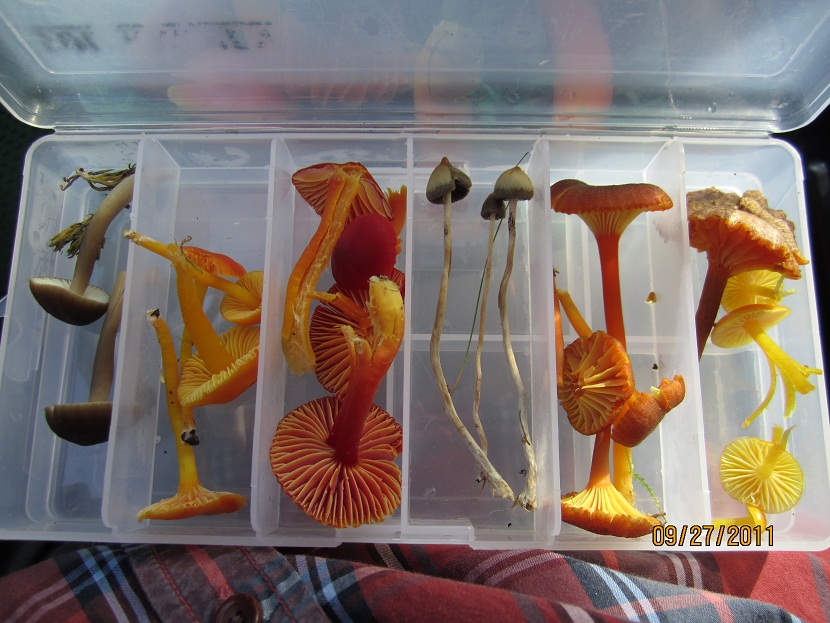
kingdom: Fungi
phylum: Basidiomycota
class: Agaricomycetes
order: Agaricales
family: Hymenogastraceae
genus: Psilocybe
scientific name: Psilocybe semilanceata
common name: spids nøgenhat
